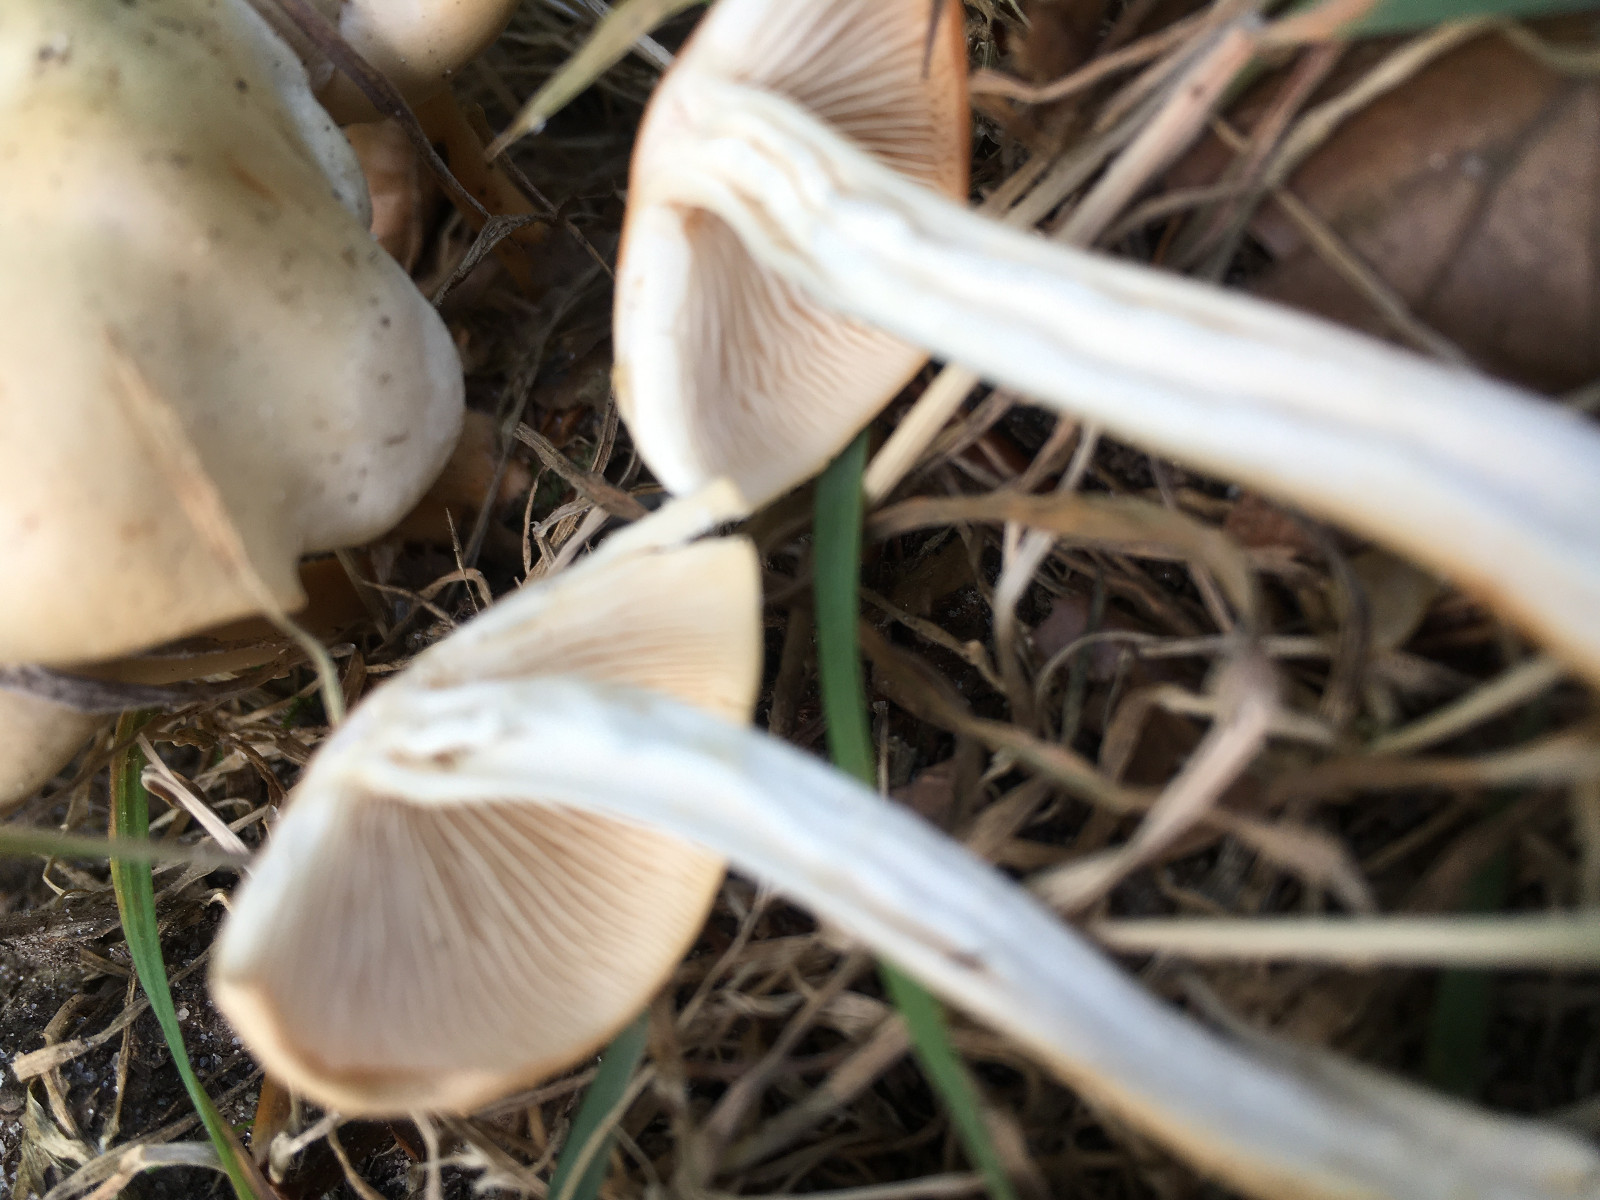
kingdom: Fungi
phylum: Basidiomycota
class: Agaricomycetes
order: Agaricales
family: Omphalotaceae
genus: Gymnopus
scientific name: Gymnopus
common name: fladhat
